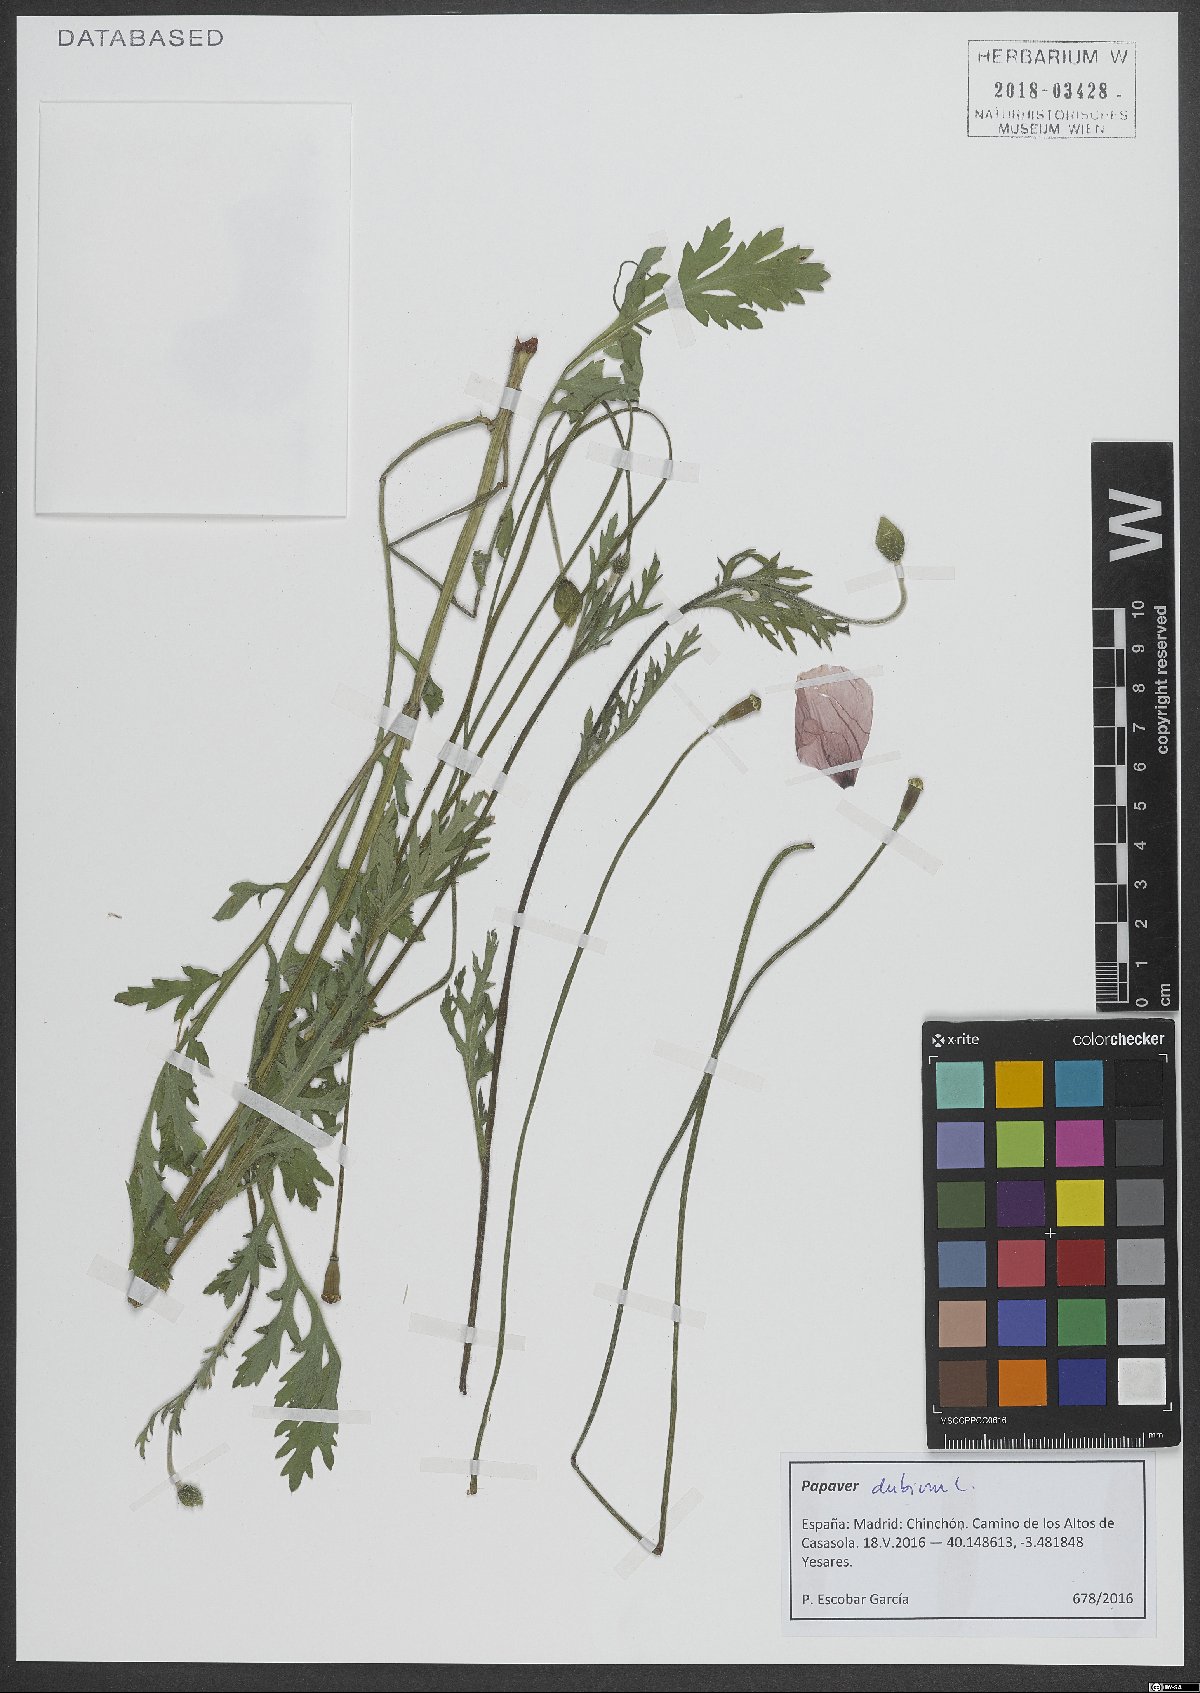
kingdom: Plantae
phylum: Tracheophyta
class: Magnoliopsida
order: Ranunculales
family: Papaveraceae
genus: Papaver
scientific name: Papaver dubium
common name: Long-headed poppy
